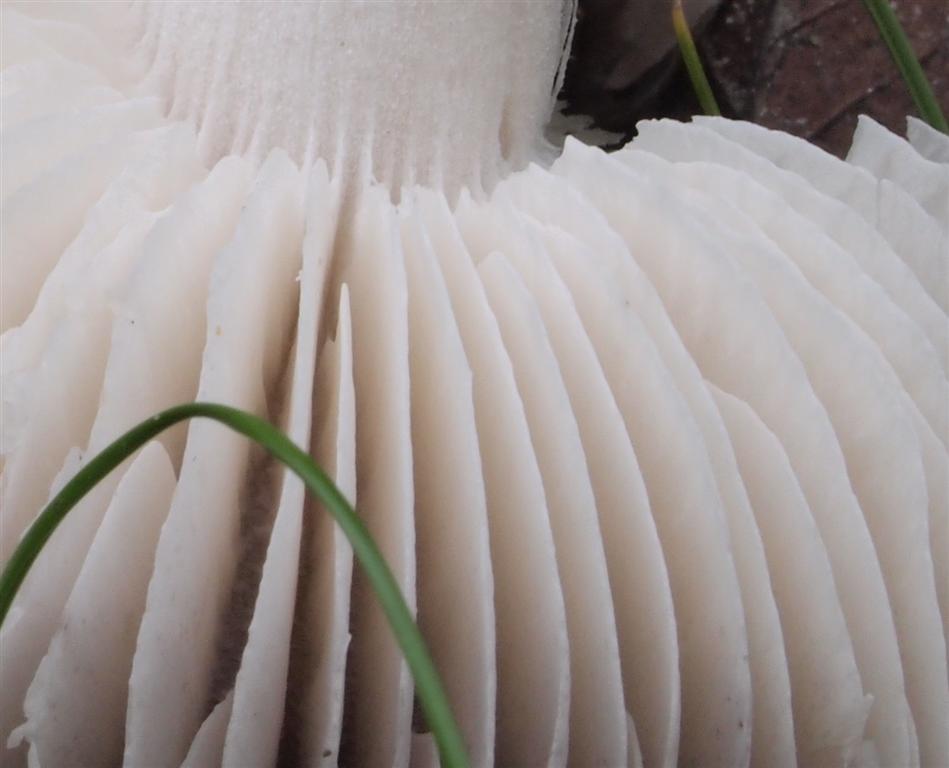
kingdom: Fungi
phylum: Basidiomycota
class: Agaricomycetes
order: Agaricales
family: Tricholomataceae
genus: Tricholoma
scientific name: Tricholoma terreum
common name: jordfarvet ridderhat
